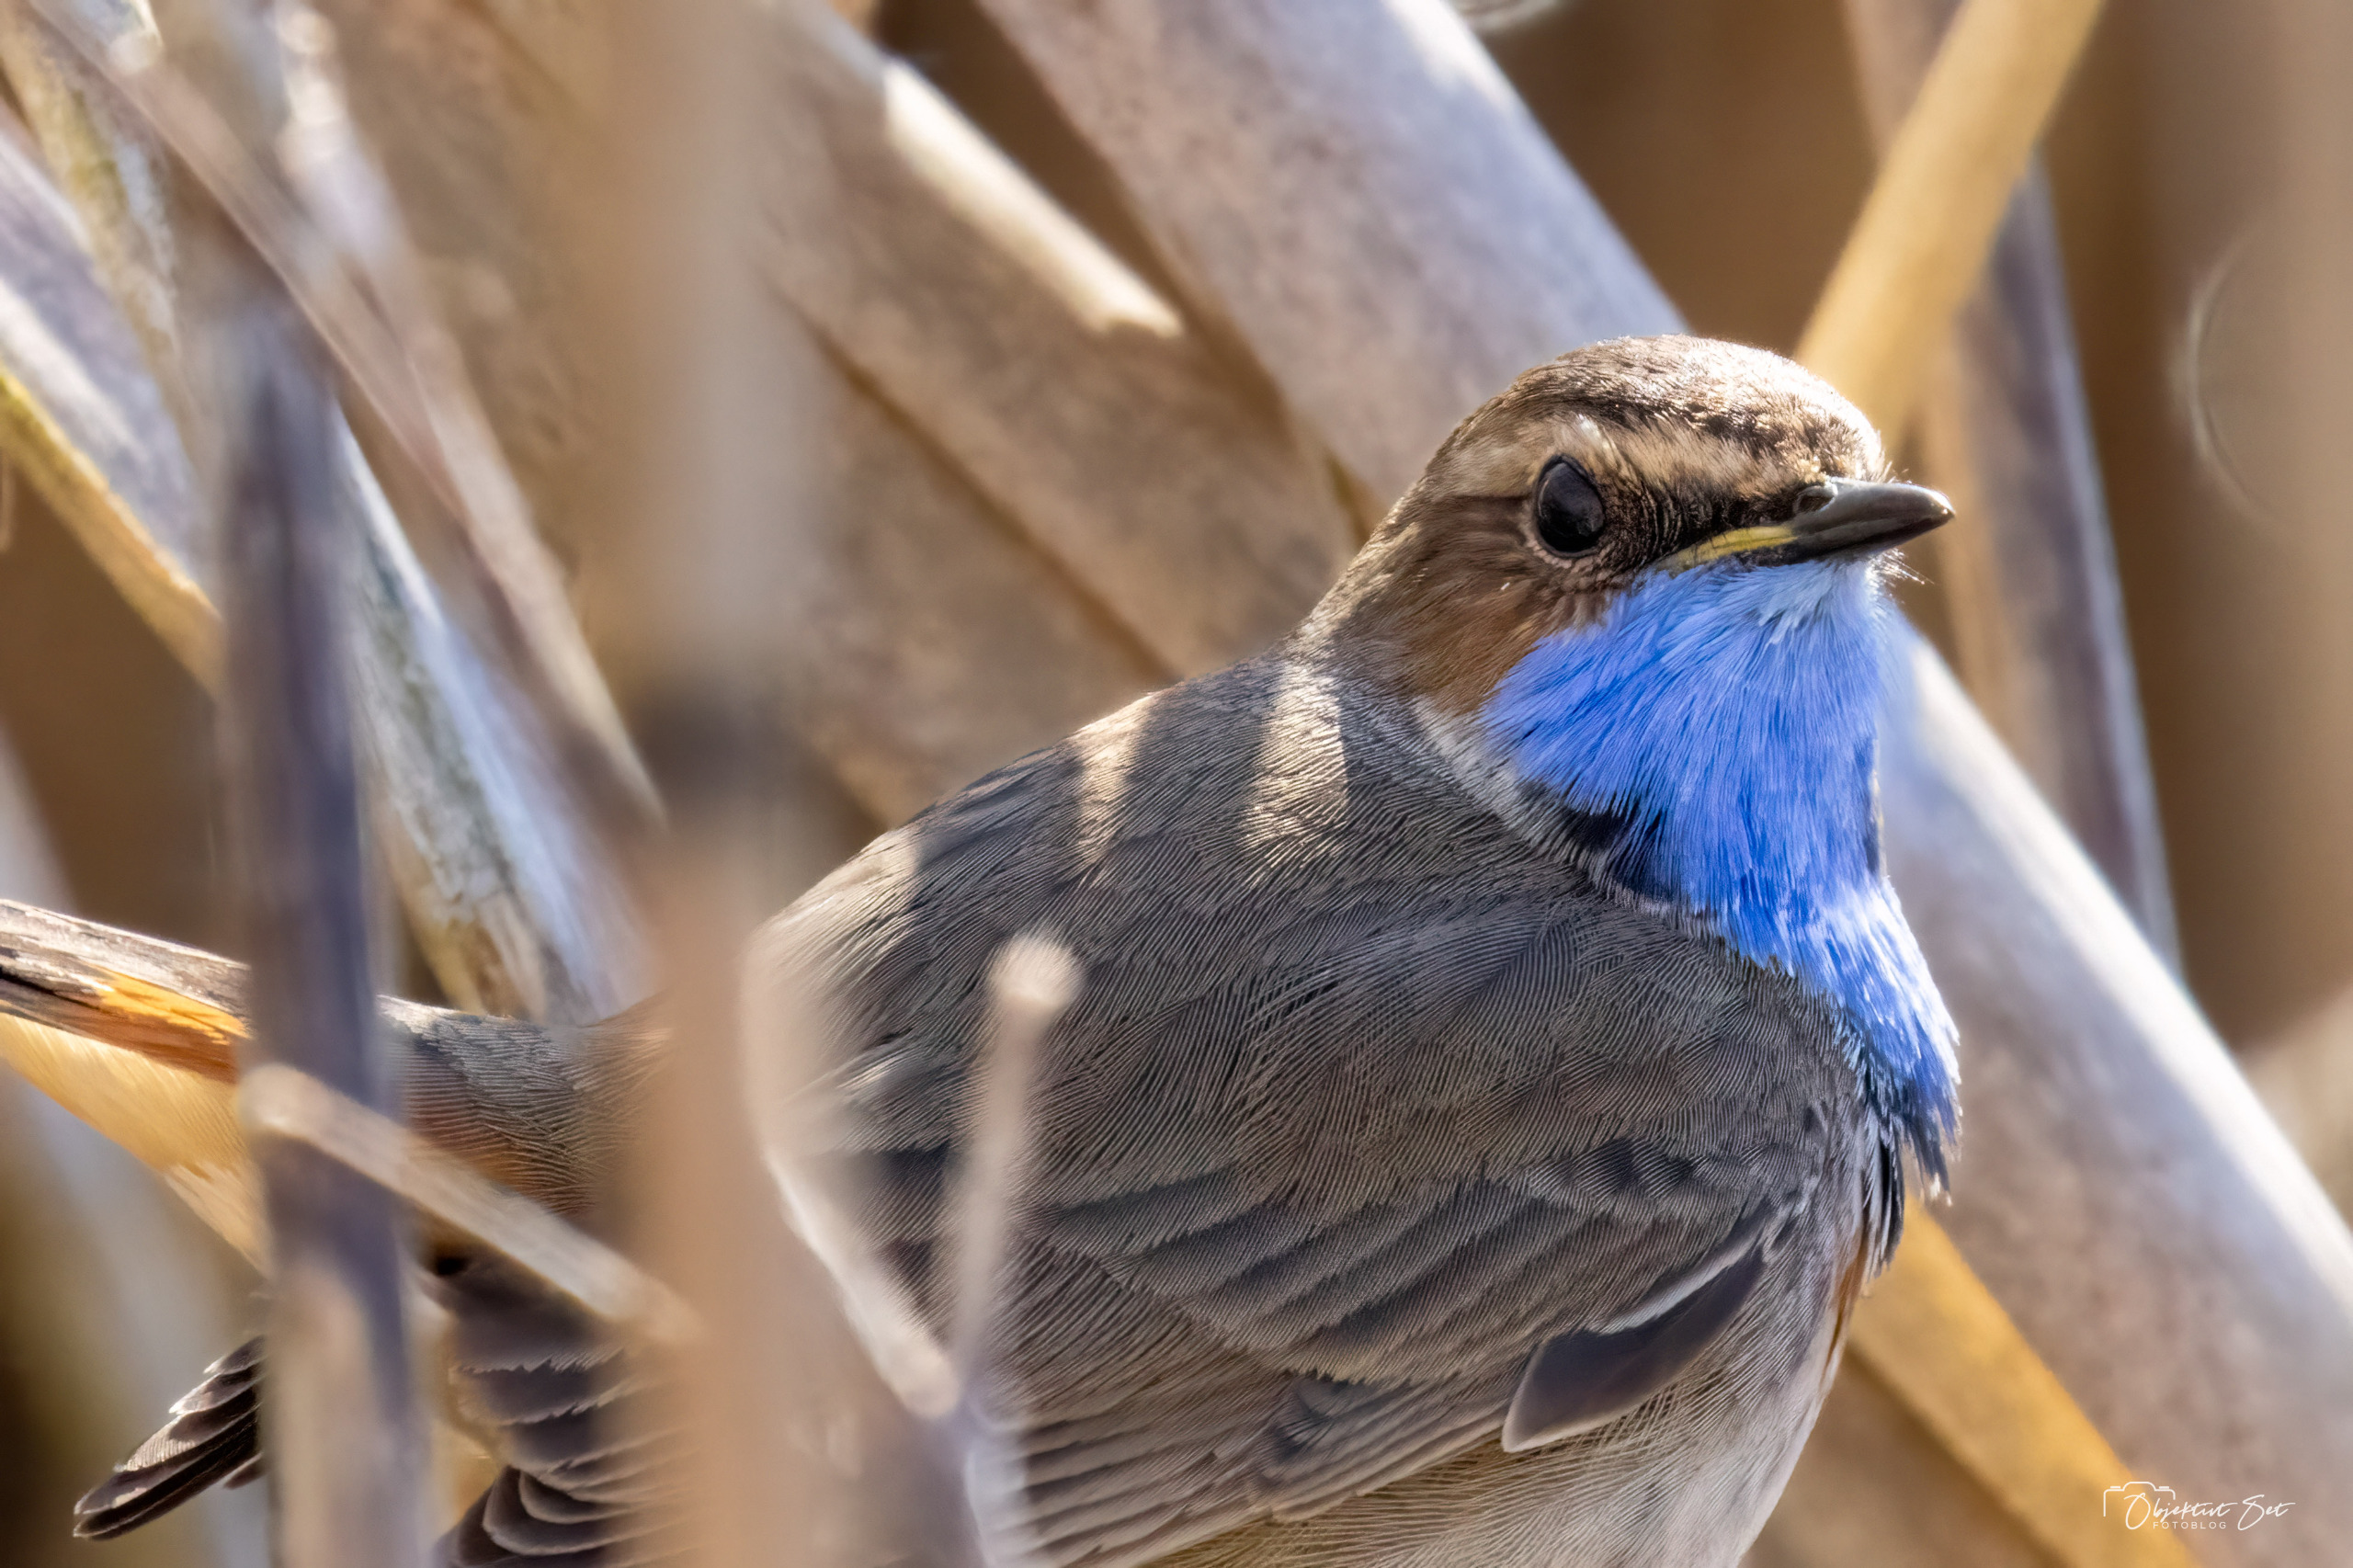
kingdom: Animalia
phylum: Chordata
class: Aves
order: Passeriformes
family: Muscicapidae
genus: Luscinia
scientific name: Luscinia svecica
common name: Blåhals
